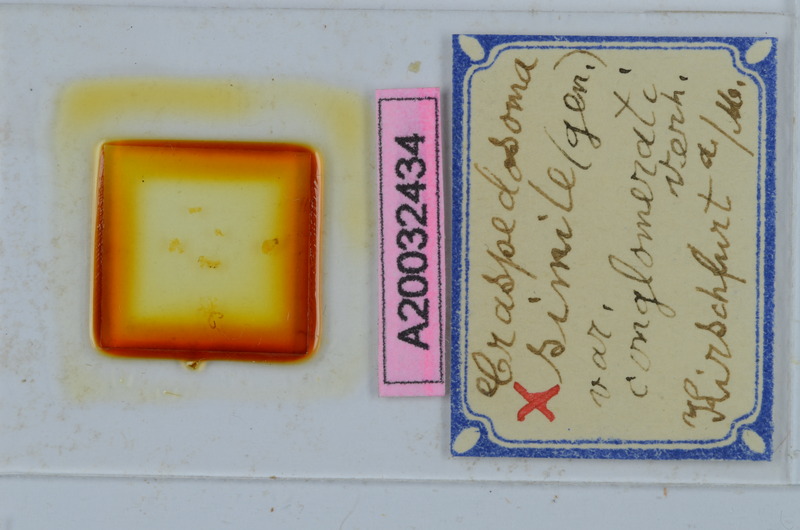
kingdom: Animalia
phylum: Arthropoda
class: Diplopoda
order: Chordeumatida
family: Craspedosomatidae
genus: Craspedosoma
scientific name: Craspedosoma rawlinsii
